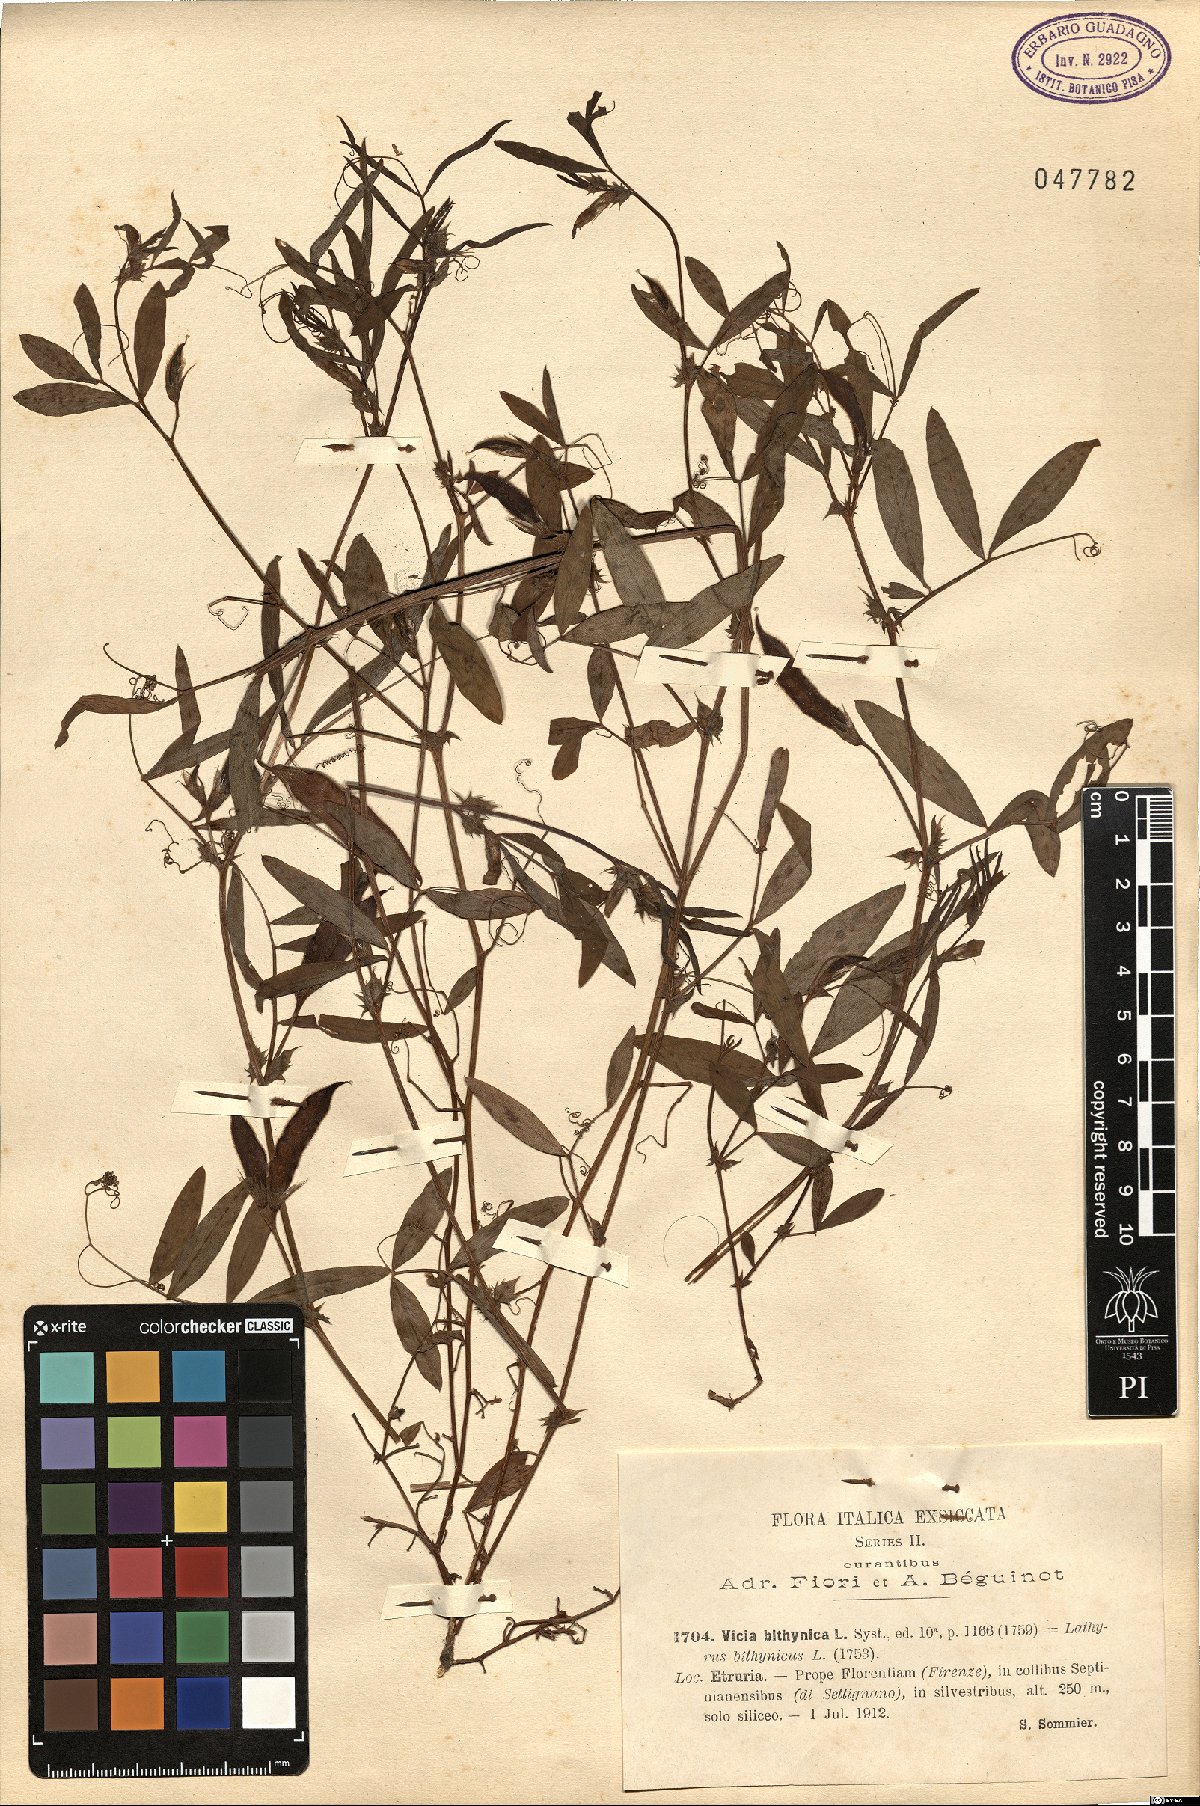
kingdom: Plantae
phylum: Tracheophyta
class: Magnoliopsida
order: Fabales
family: Fabaceae
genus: Vicia
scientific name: Vicia bithynica
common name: Bithynian vetch
